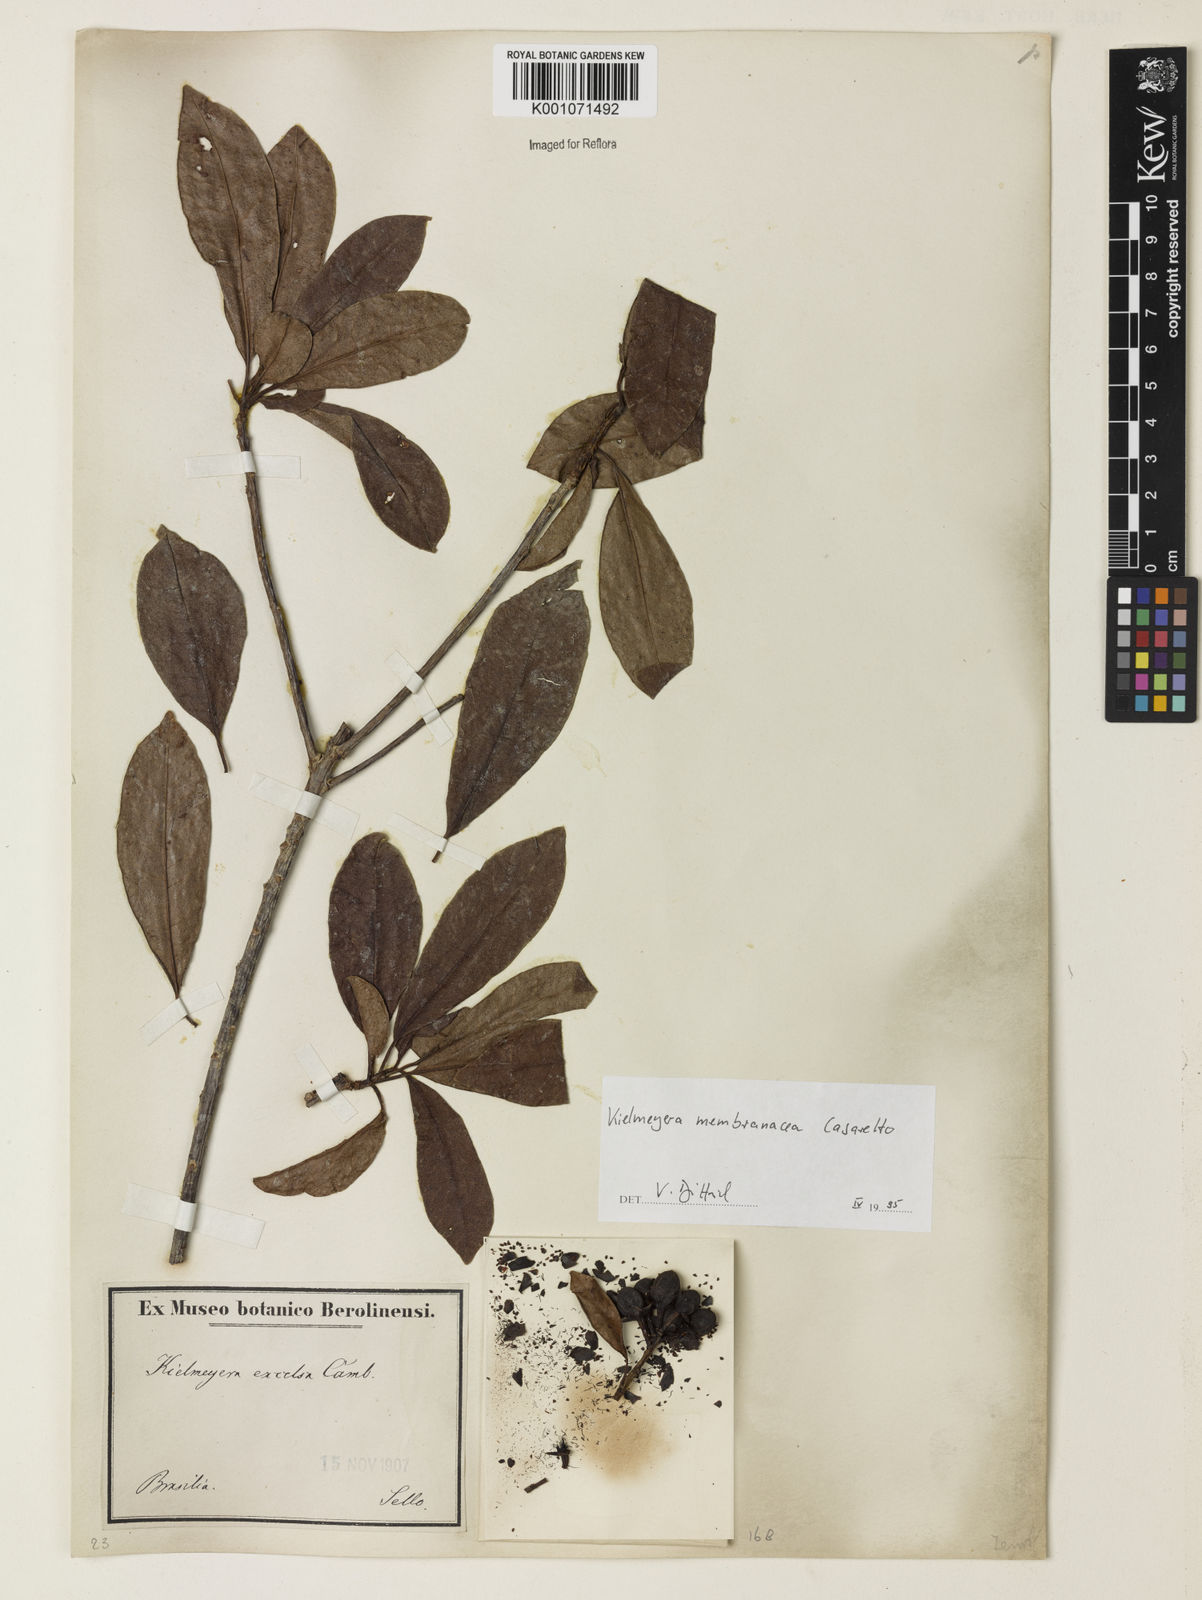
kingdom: Plantae
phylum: Tracheophyta
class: Magnoliopsida
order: Malpighiales
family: Calophyllaceae
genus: Kielmeyera
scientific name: Kielmeyera membranacea
